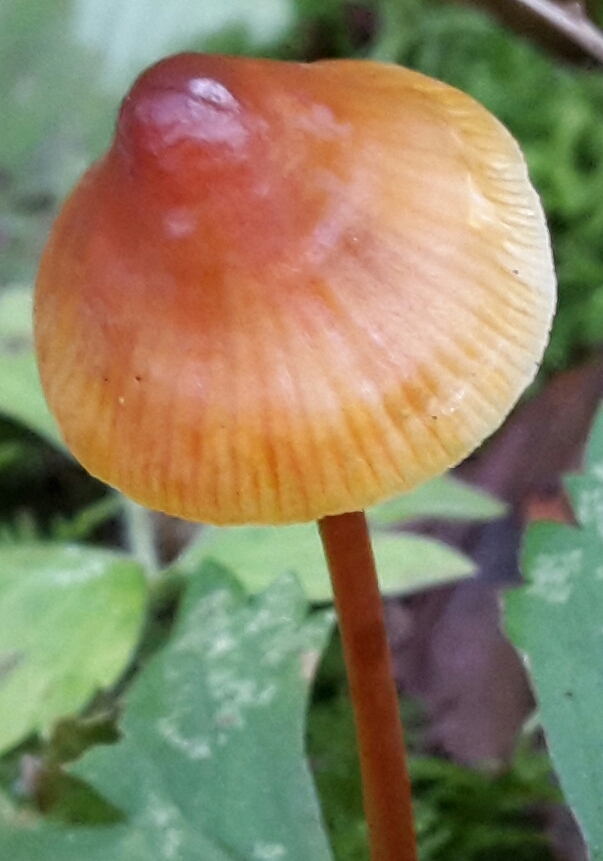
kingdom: Fungi
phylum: Basidiomycota
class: Agaricomycetes
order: Agaricales
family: Mycenaceae
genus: Mycena
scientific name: Mycena crocata
